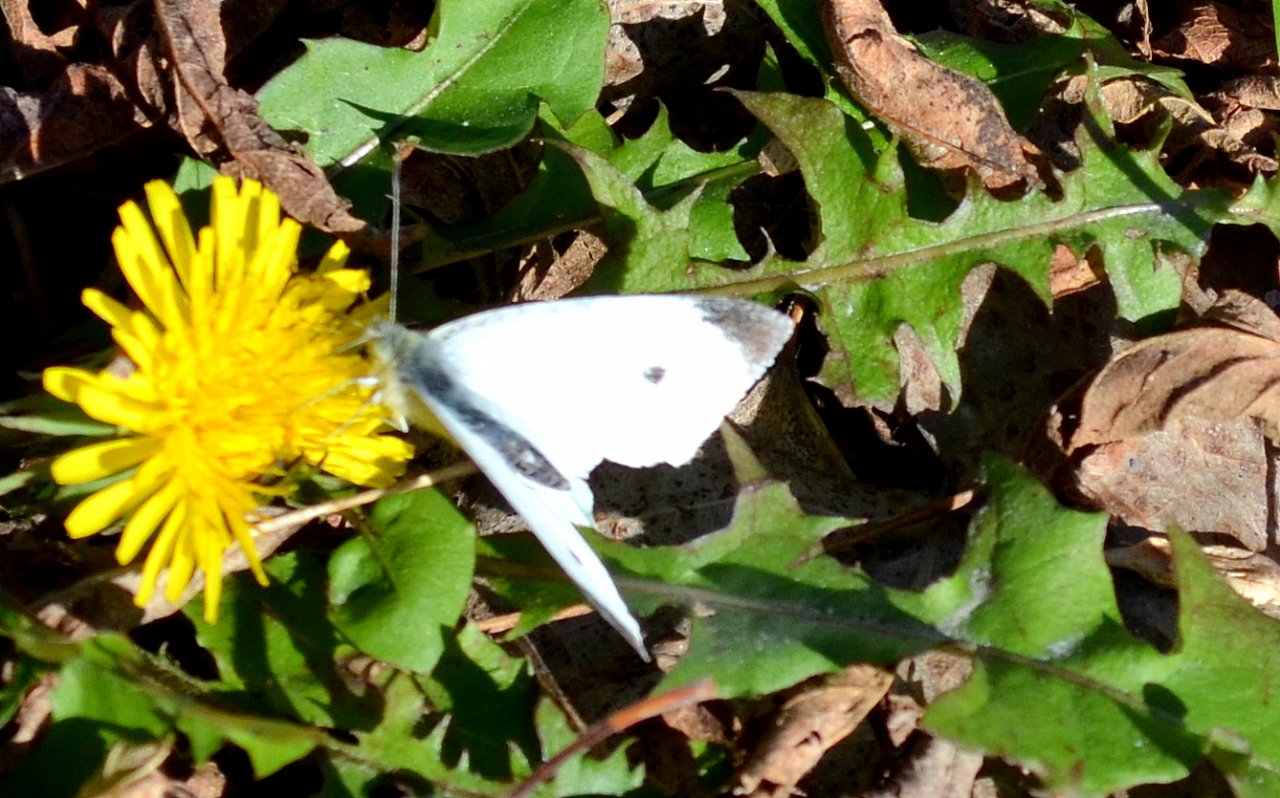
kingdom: Animalia
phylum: Arthropoda
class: Insecta
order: Lepidoptera
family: Pieridae
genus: Pieris
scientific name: Pieris rapae
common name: Cabbage White
